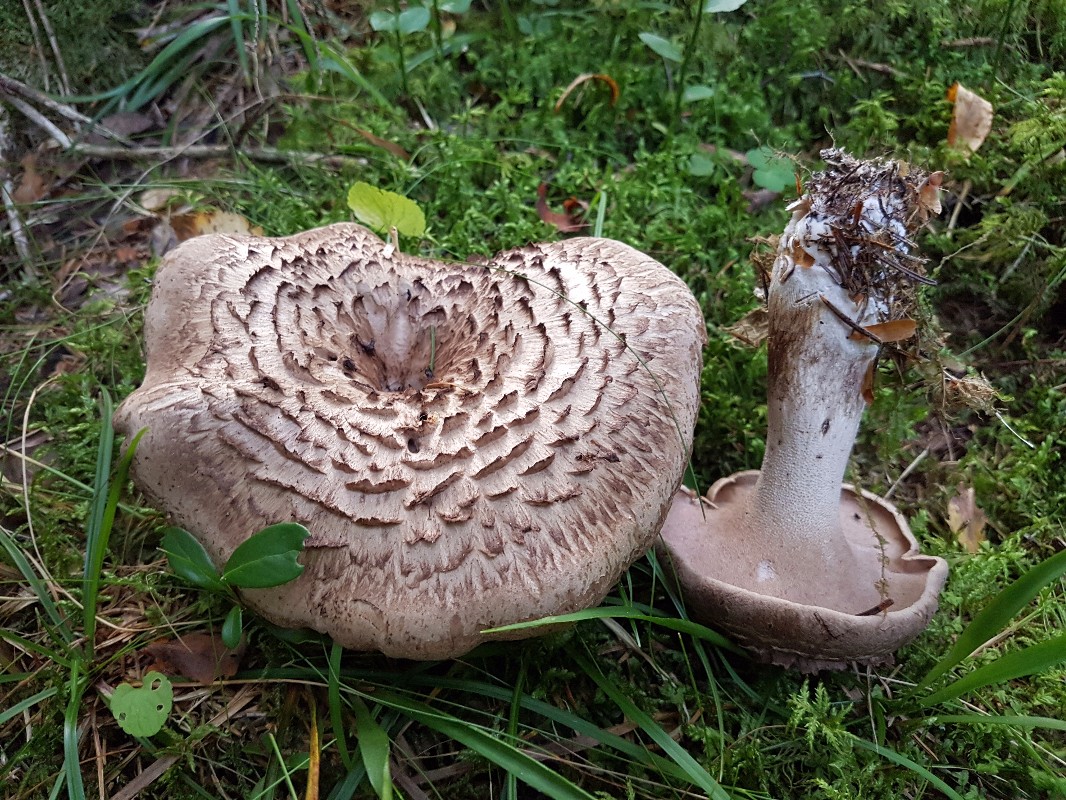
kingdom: Fungi
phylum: Basidiomycota
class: Agaricomycetes
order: Thelephorales
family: Bankeraceae
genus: Sarcodon
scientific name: Sarcodon imbricatus
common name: skællet kødpigsvamp
